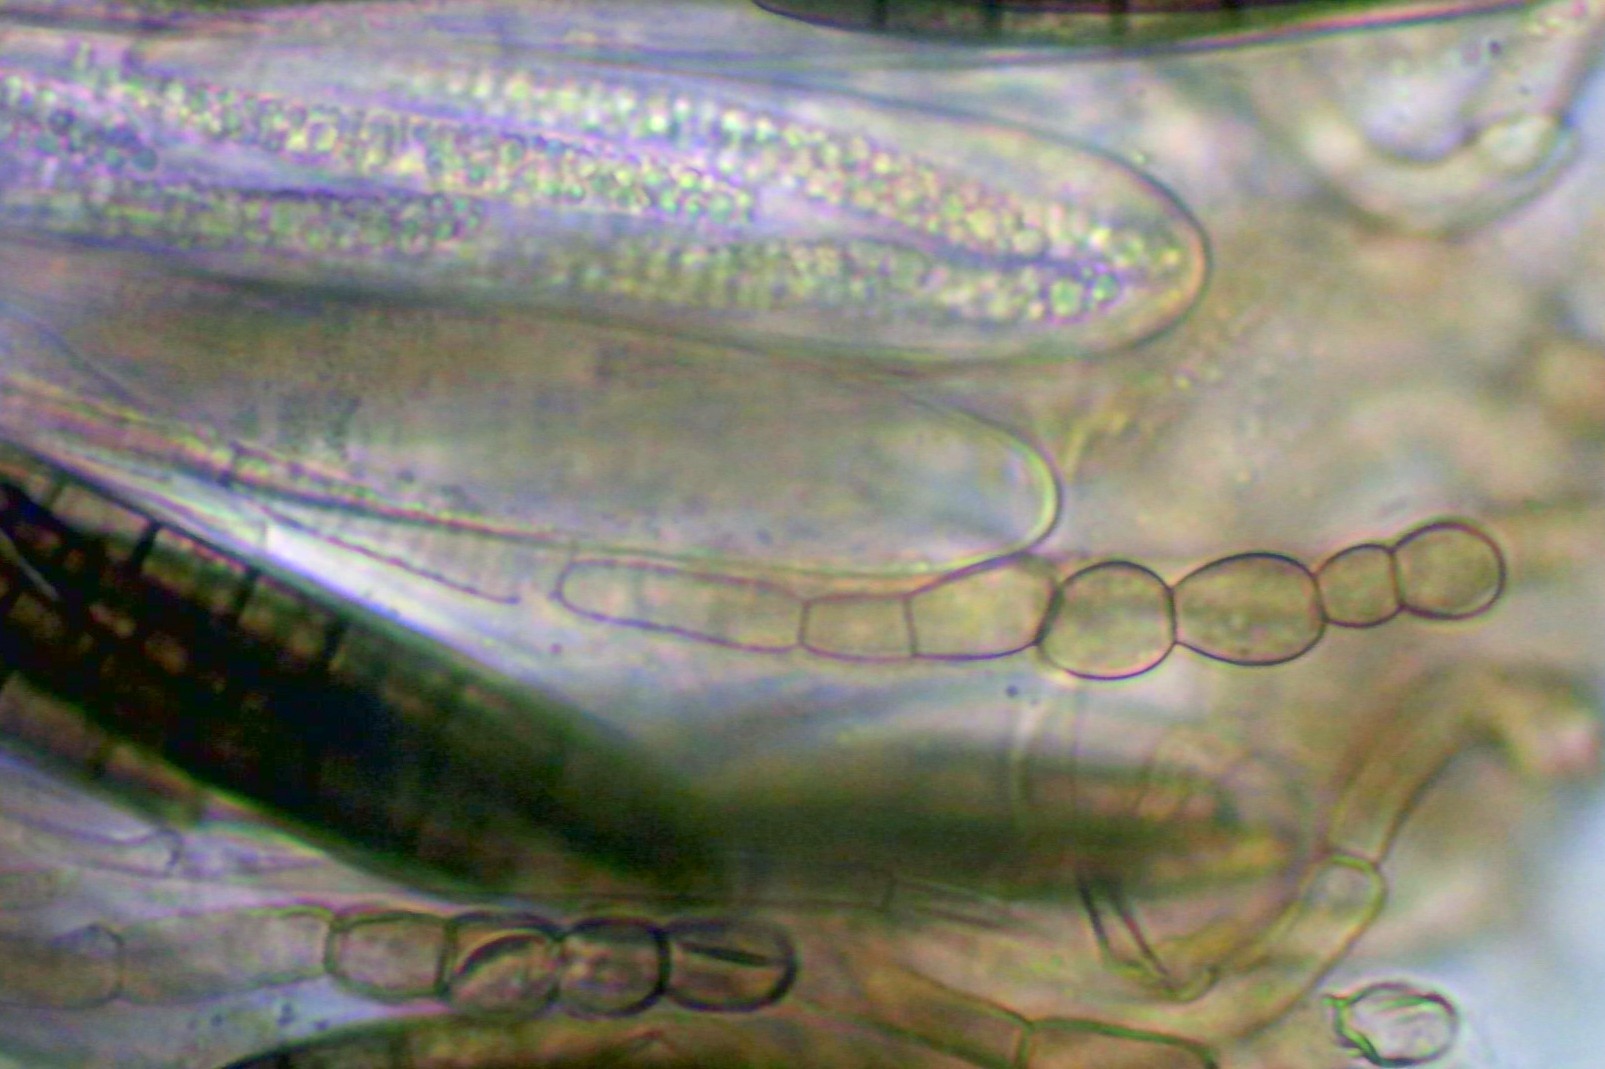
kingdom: Fungi
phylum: Ascomycota
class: Geoglossomycetes
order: Geoglossales
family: Geoglossaceae
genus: Geoglossum
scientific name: Geoglossum cookeianum
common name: bred jordtunge
